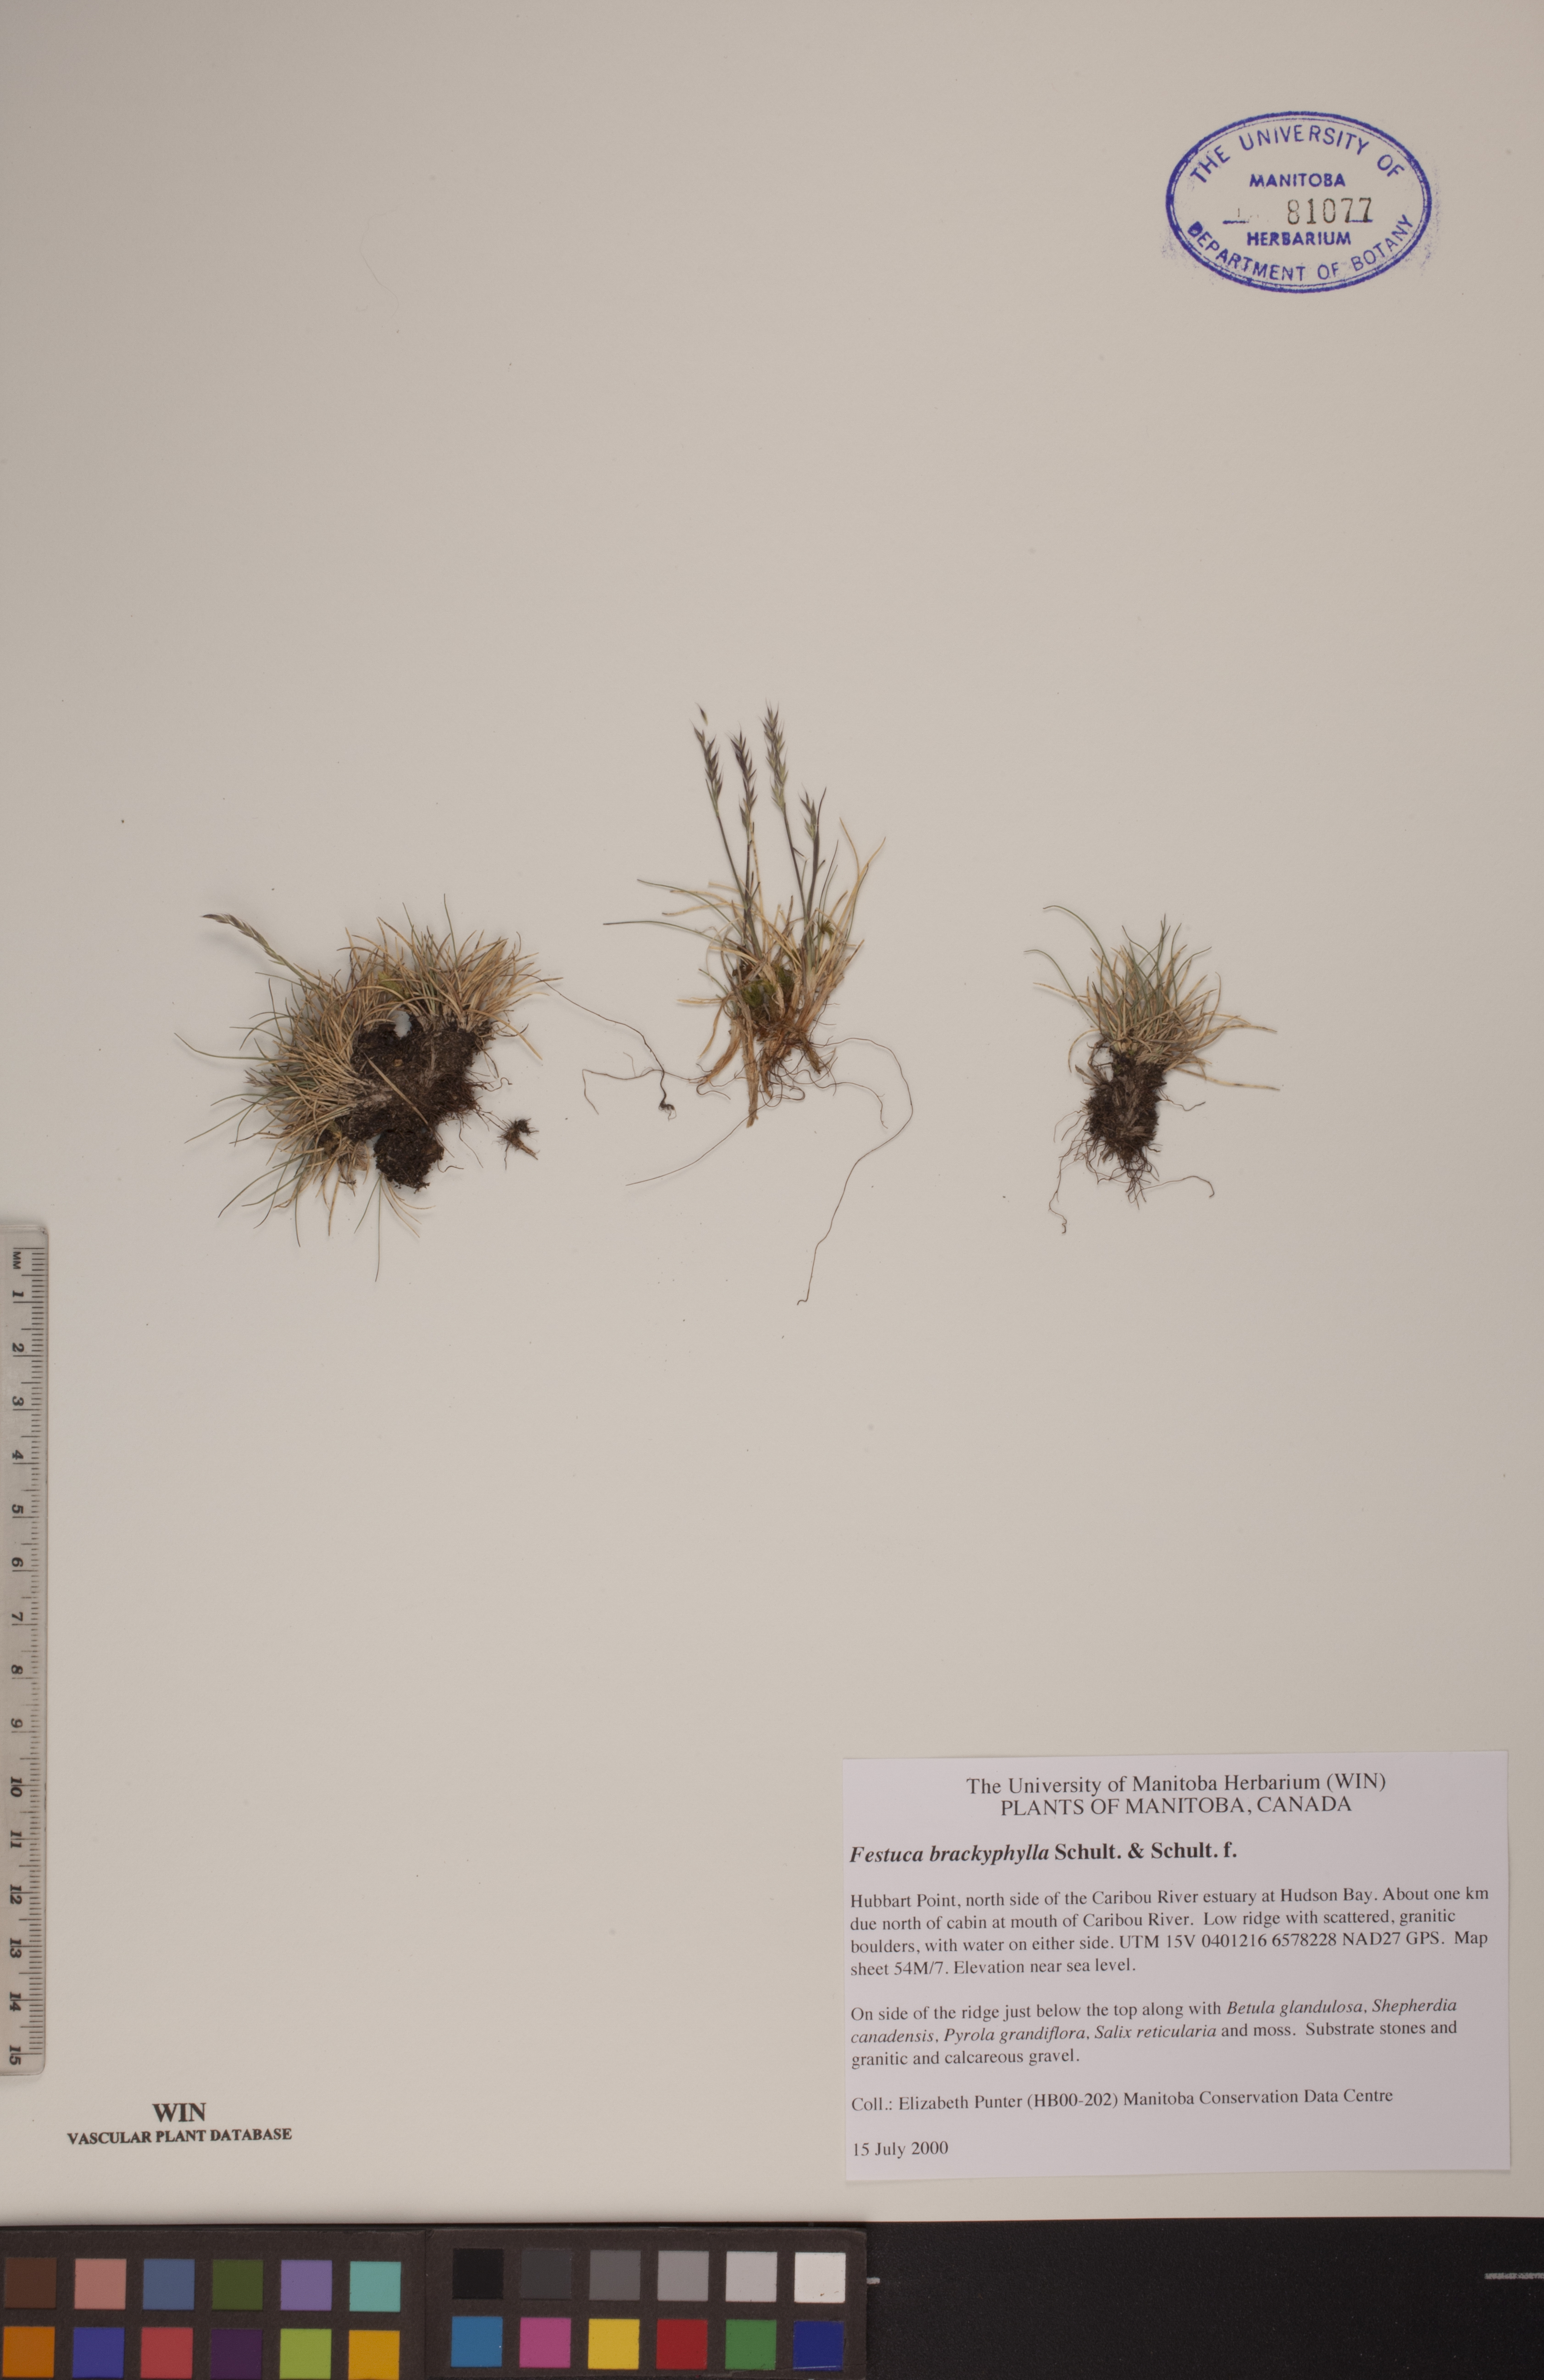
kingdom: Plantae
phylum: Tracheophyta
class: Liliopsida
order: Poales
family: Poaceae
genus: Festuca
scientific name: Festuca brachyphylla
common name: Alpine fescue
